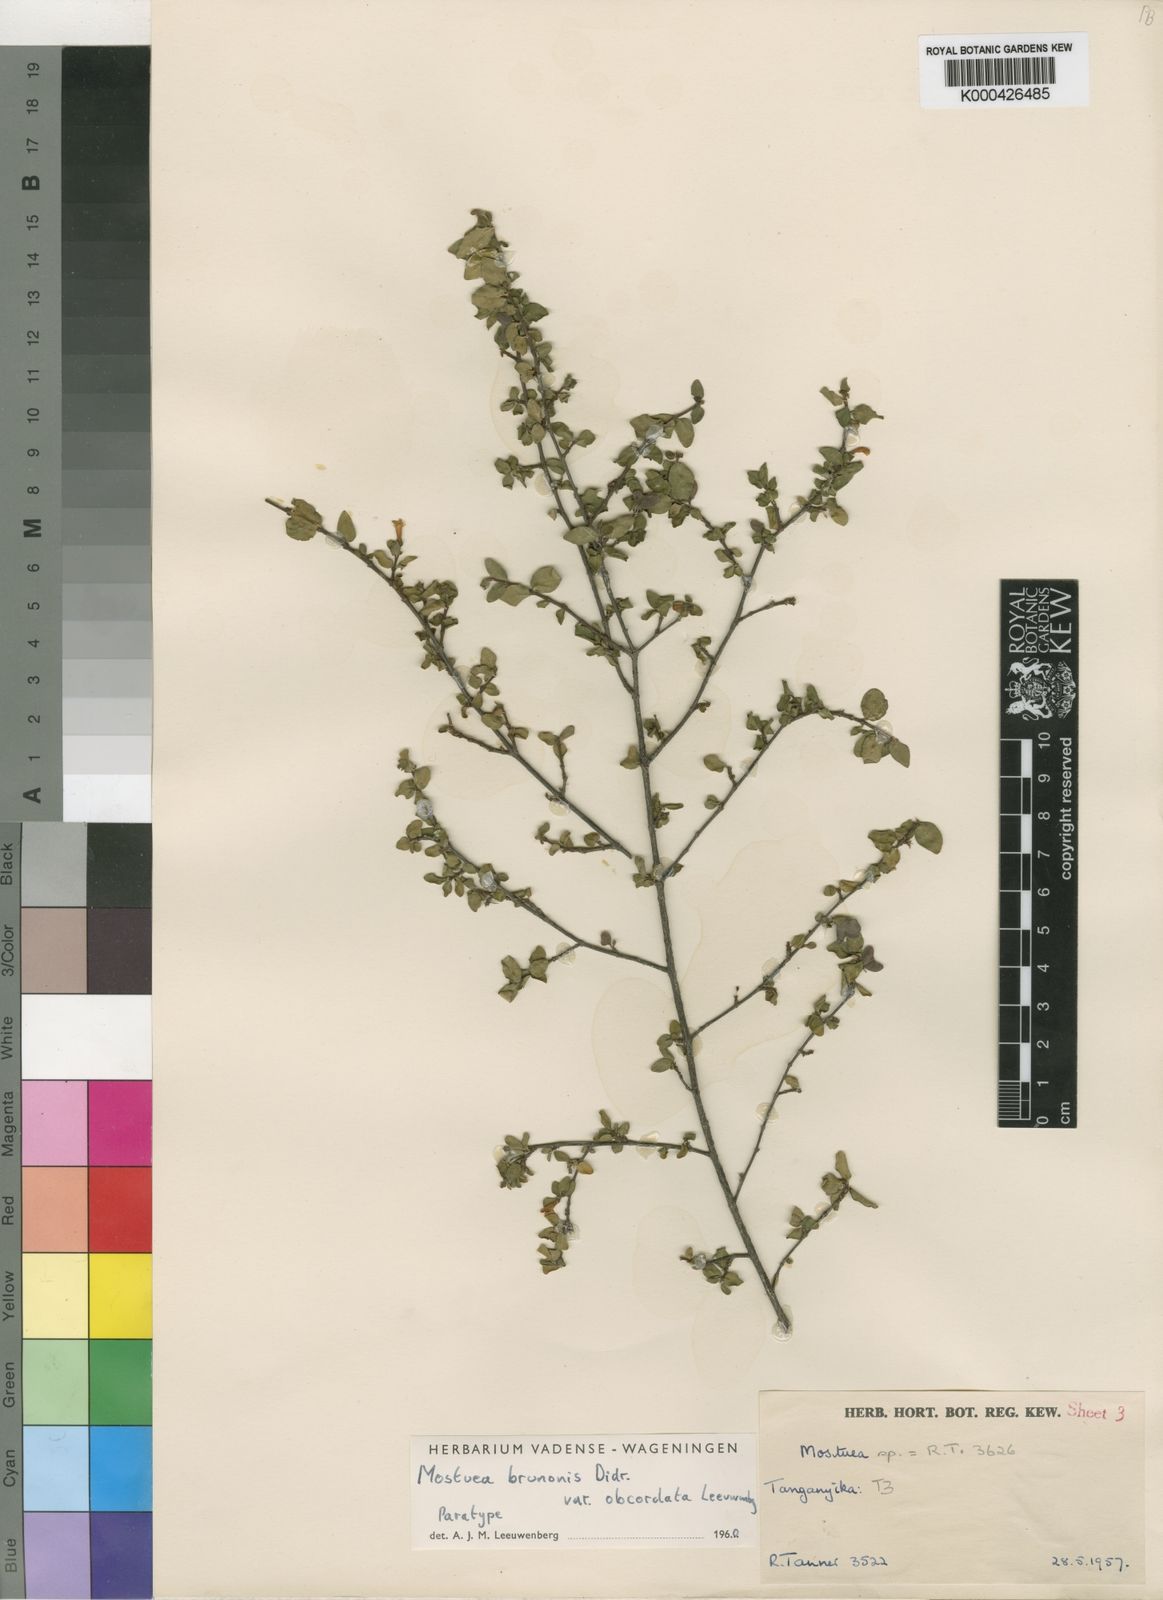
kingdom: Plantae
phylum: Tracheophyta
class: Magnoliopsida
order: Gentianales
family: Gelsemiaceae
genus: Mostuea
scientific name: Mostuea brunonis
